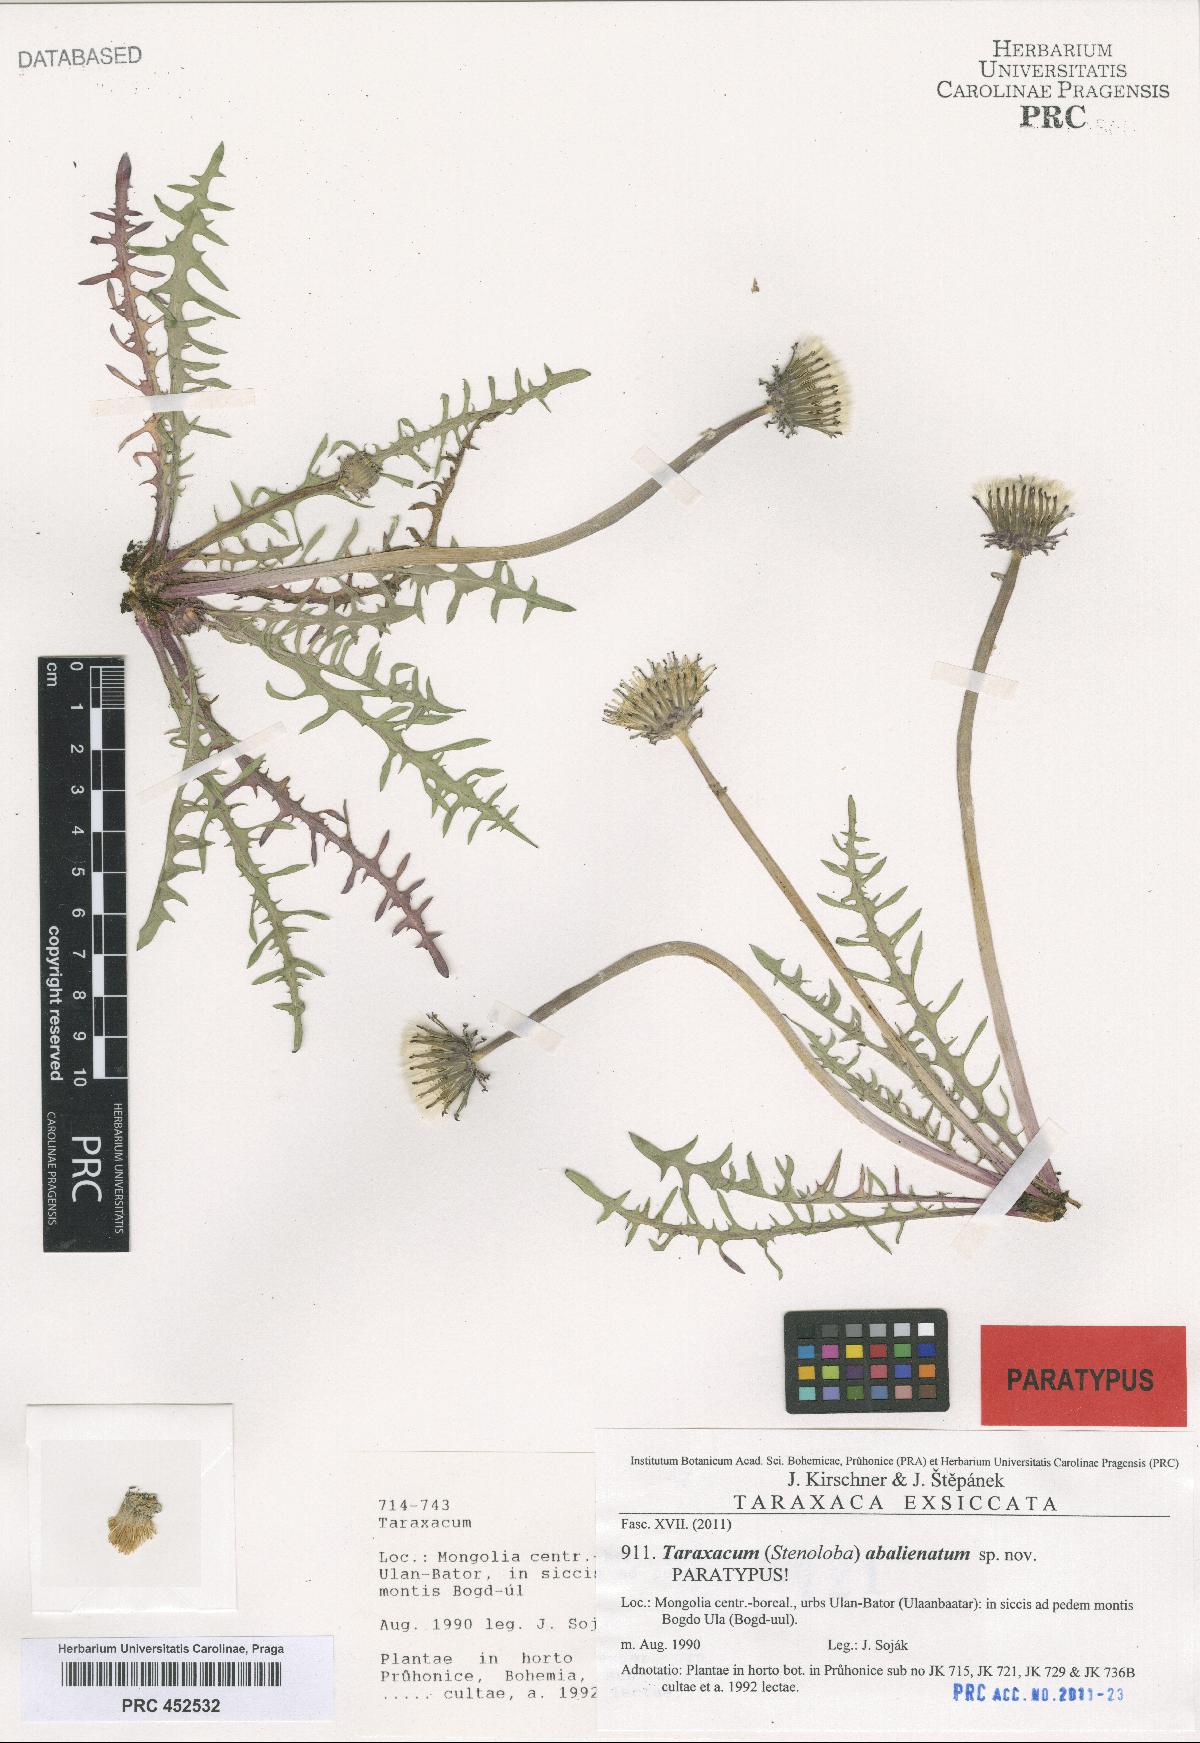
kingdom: Plantae
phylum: Tracheophyta
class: Magnoliopsida
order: Asterales
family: Asteraceae
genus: Taraxacum
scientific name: Taraxacum abalienatum
